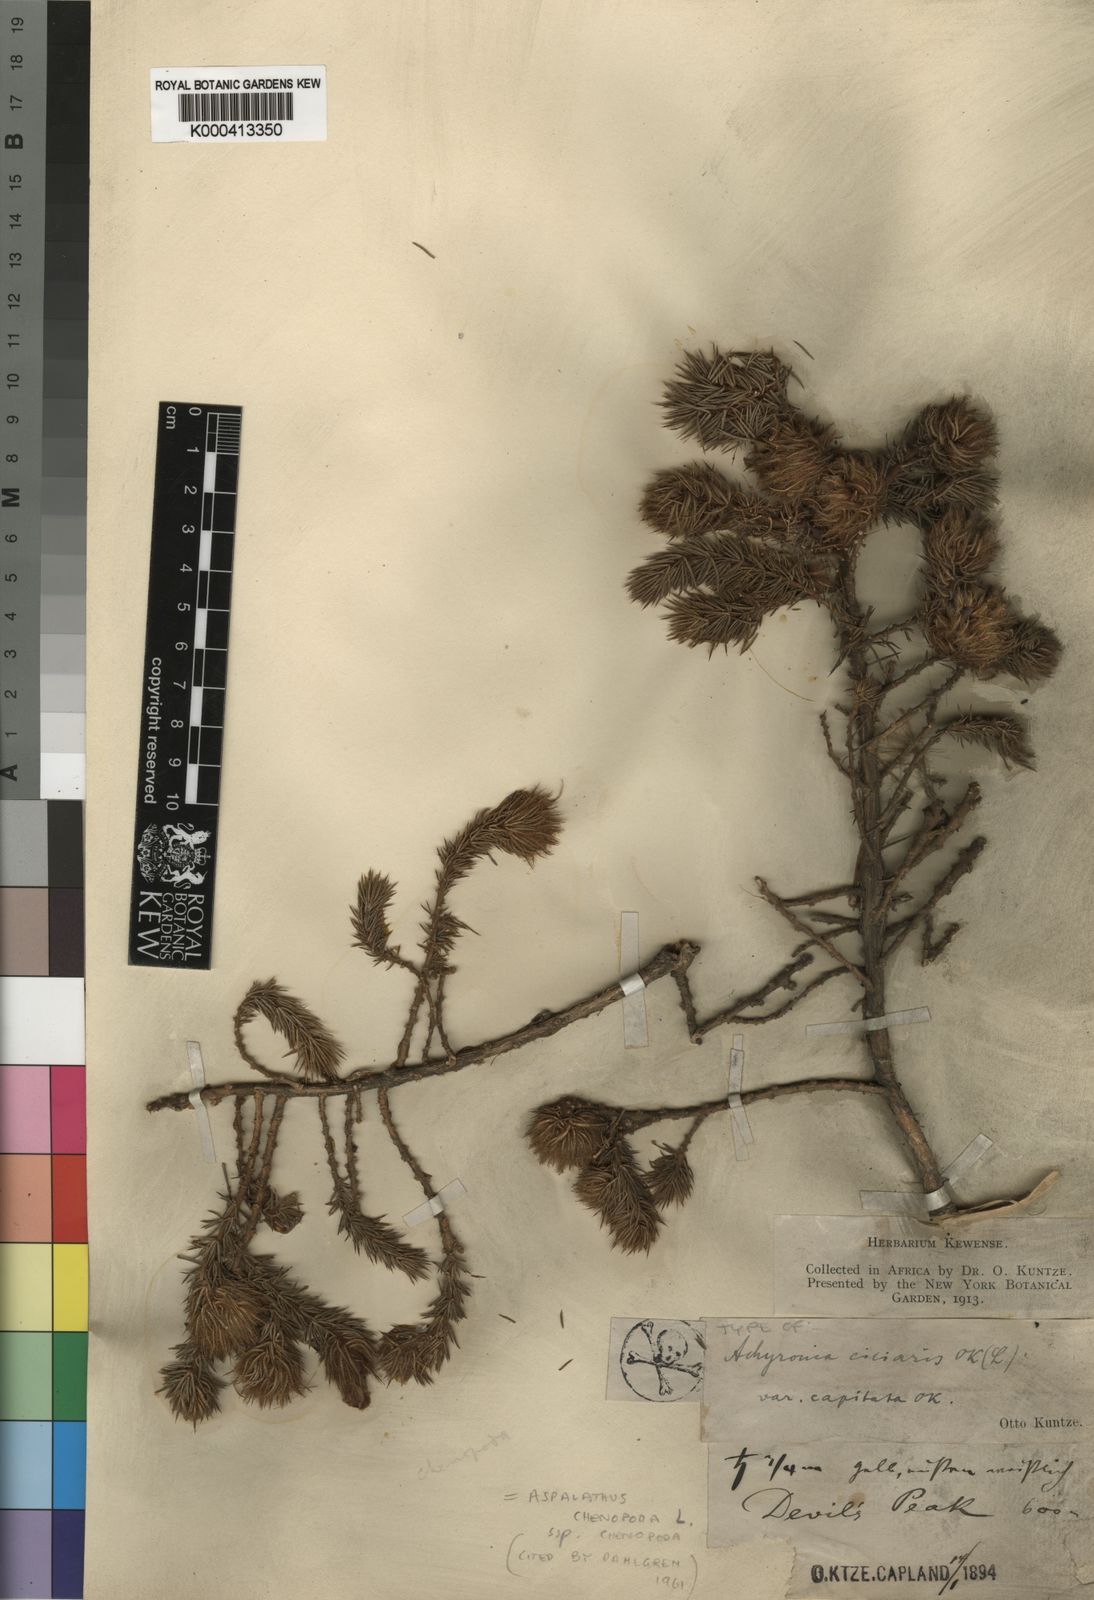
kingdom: Plantae
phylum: Tracheophyta
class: Magnoliopsida
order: Fabales
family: Fabaceae
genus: Aspalathus
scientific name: Aspalathus chenopoda
